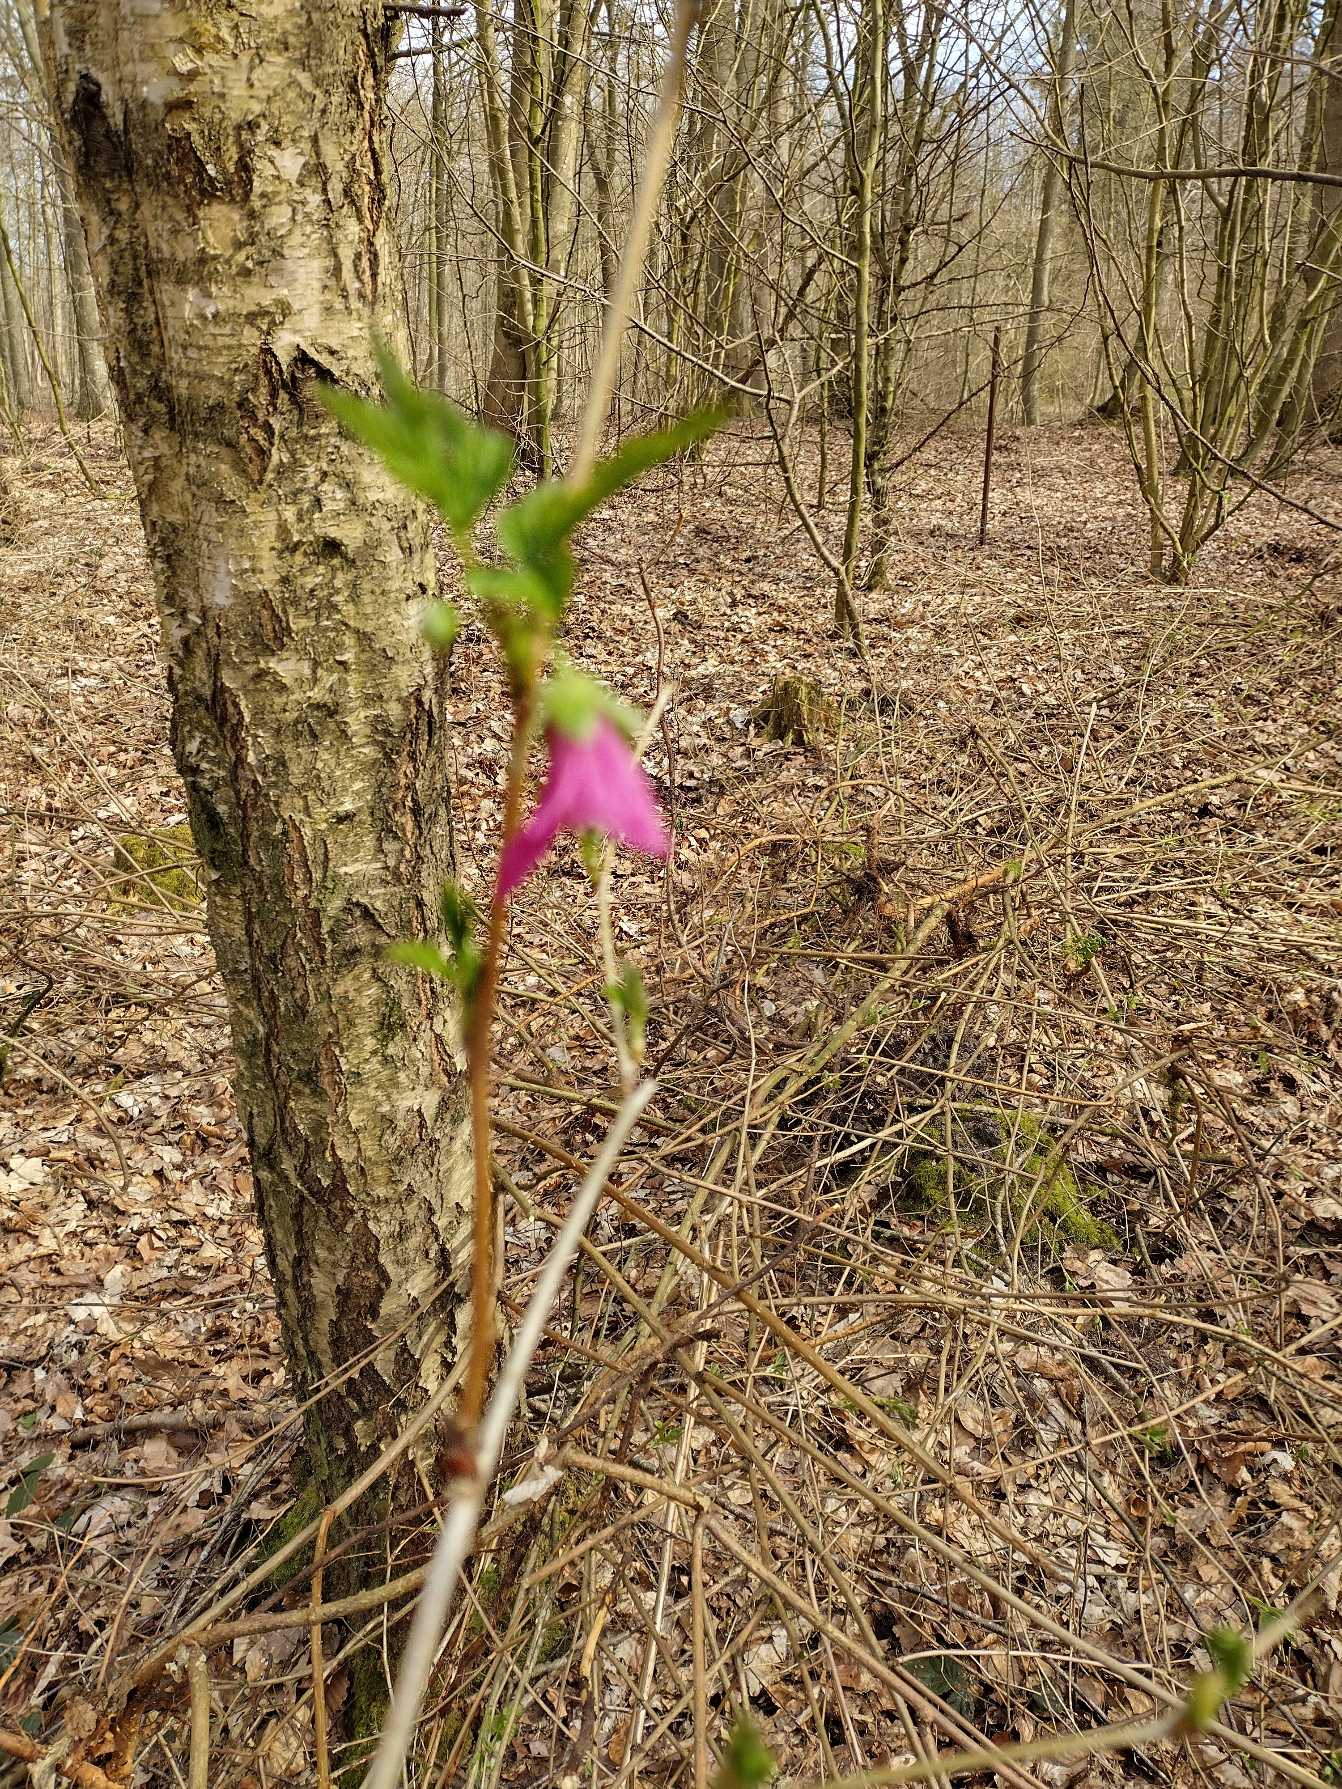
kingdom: Plantae
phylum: Tracheophyta
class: Magnoliopsida
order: Rosales
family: Rosaceae
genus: Rubus
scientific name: Rubus spectabilis
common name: Laksebær
